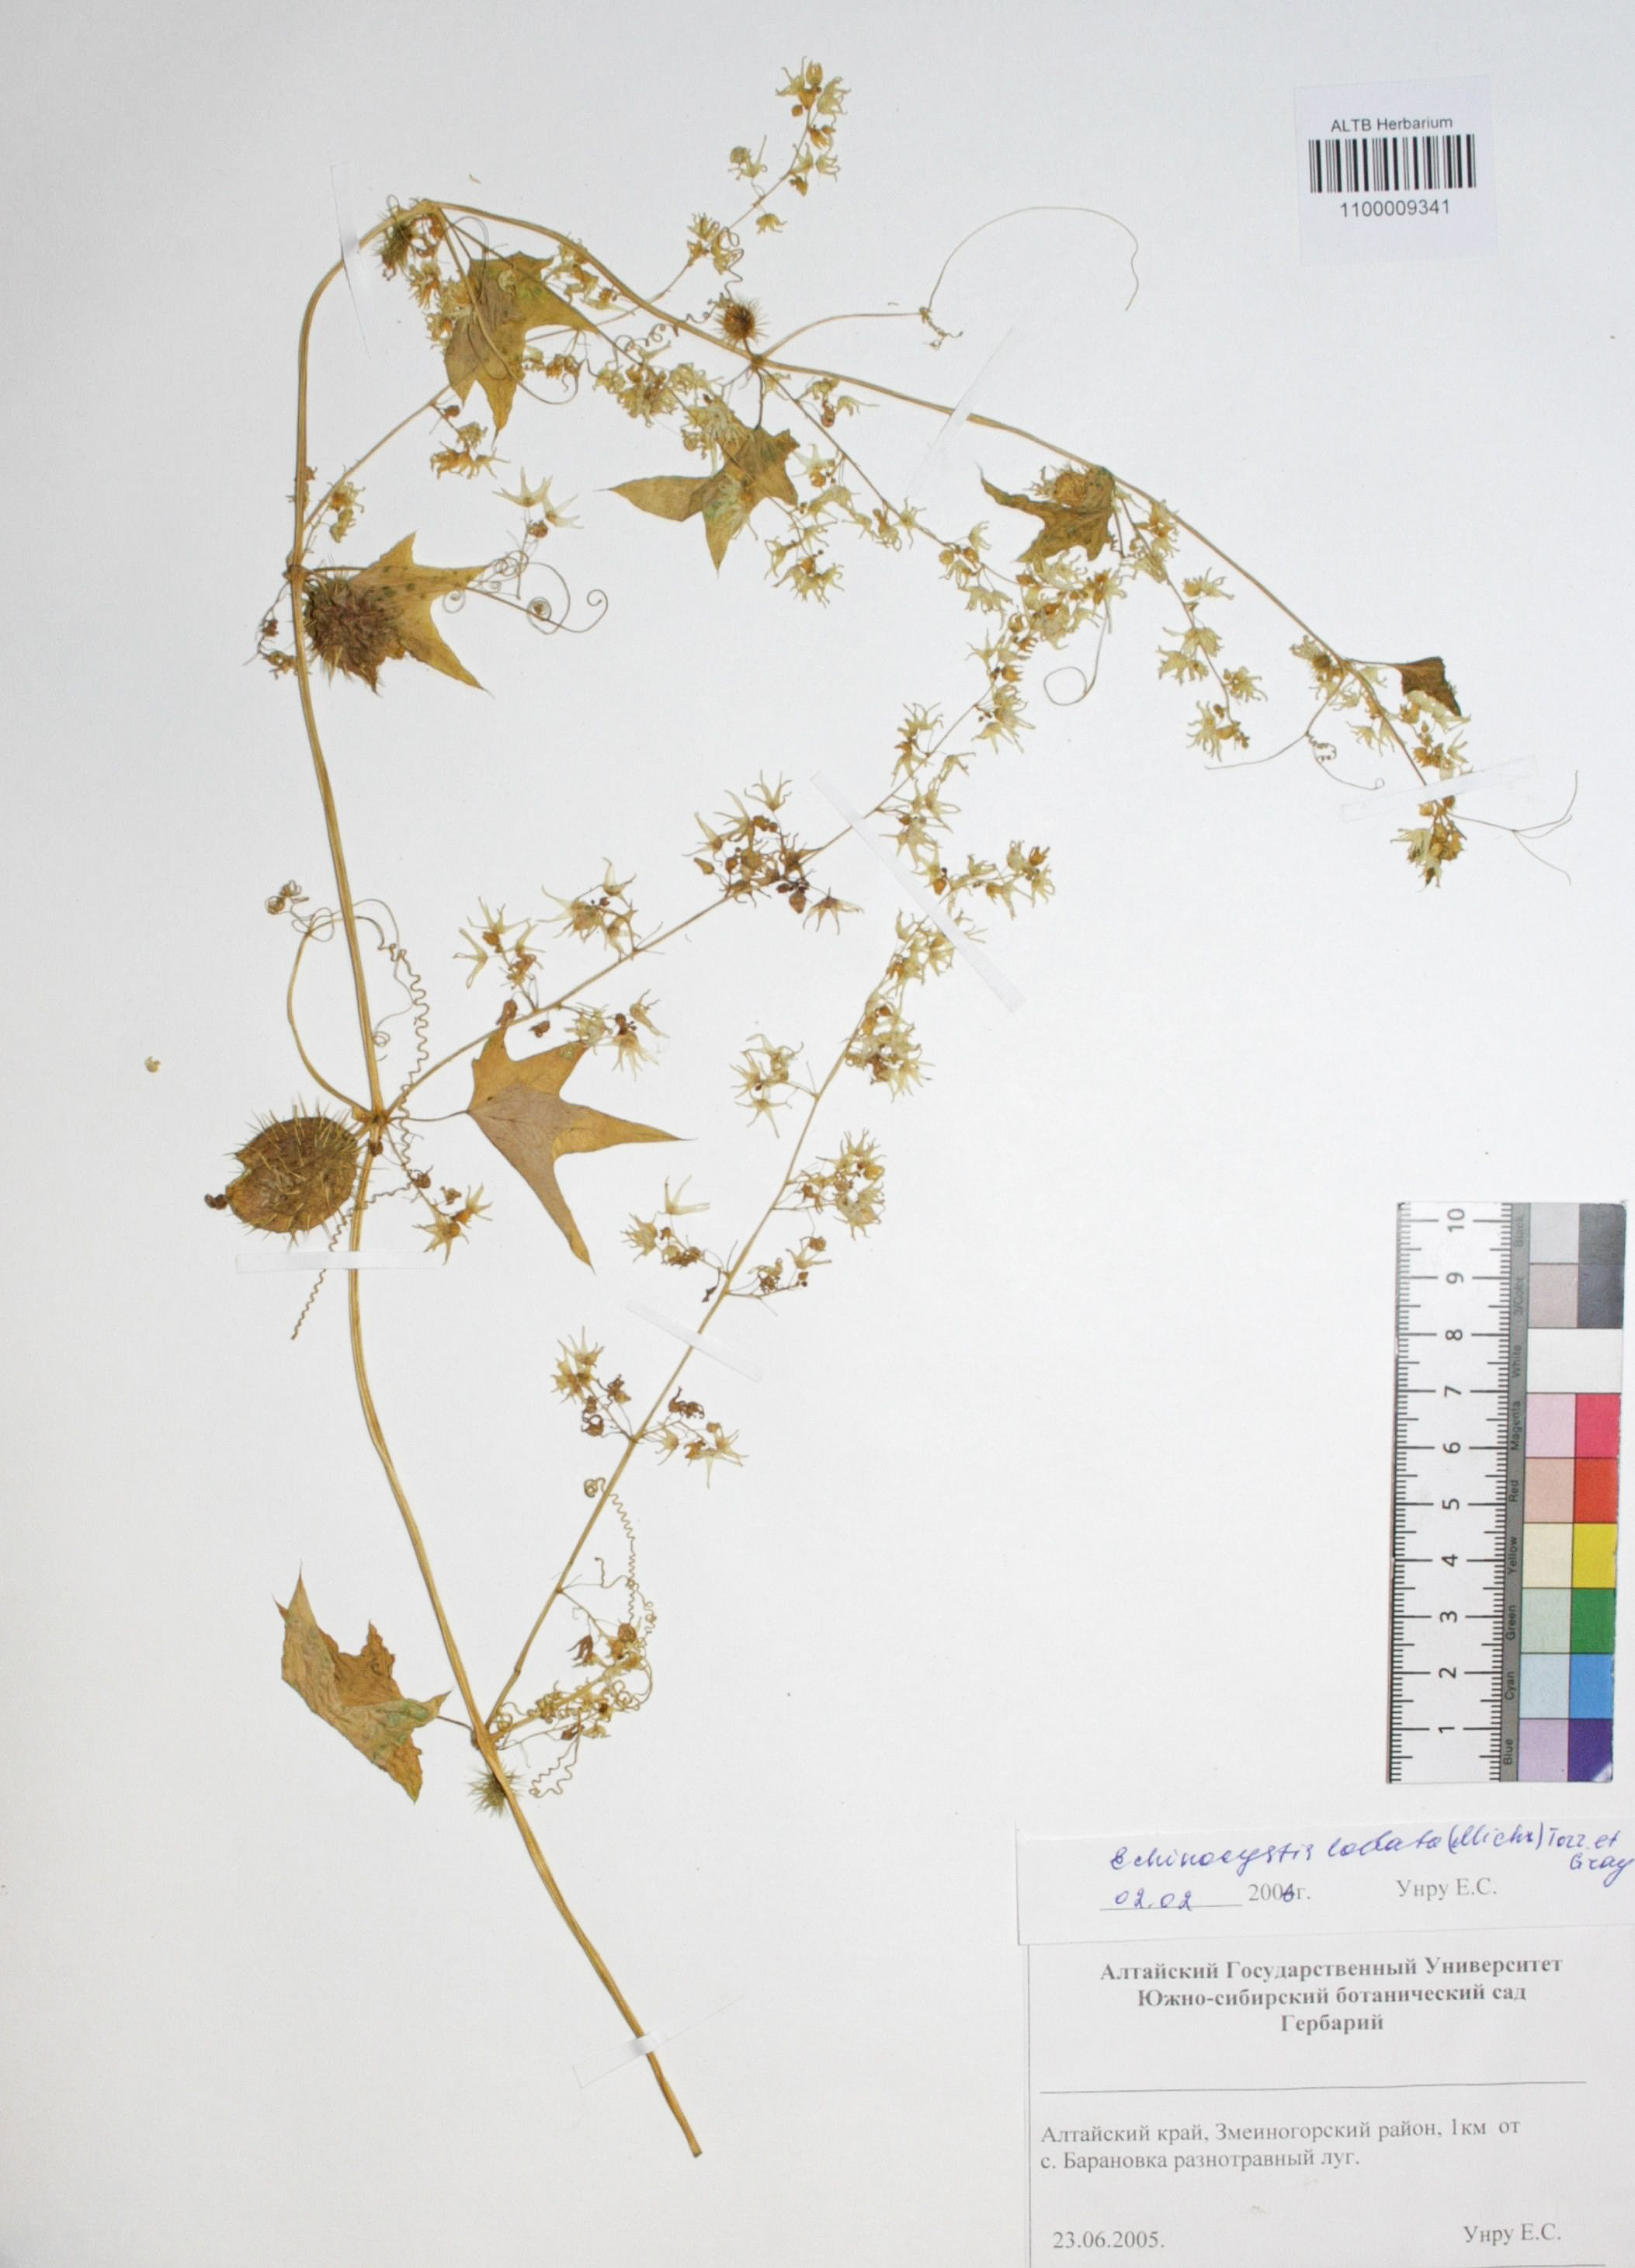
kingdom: Plantae
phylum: Tracheophyta
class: Magnoliopsida
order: Cucurbitales
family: Cucurbitaceae
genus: Echinocystis
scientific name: Echinocystis lobata
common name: Wild cucumber
